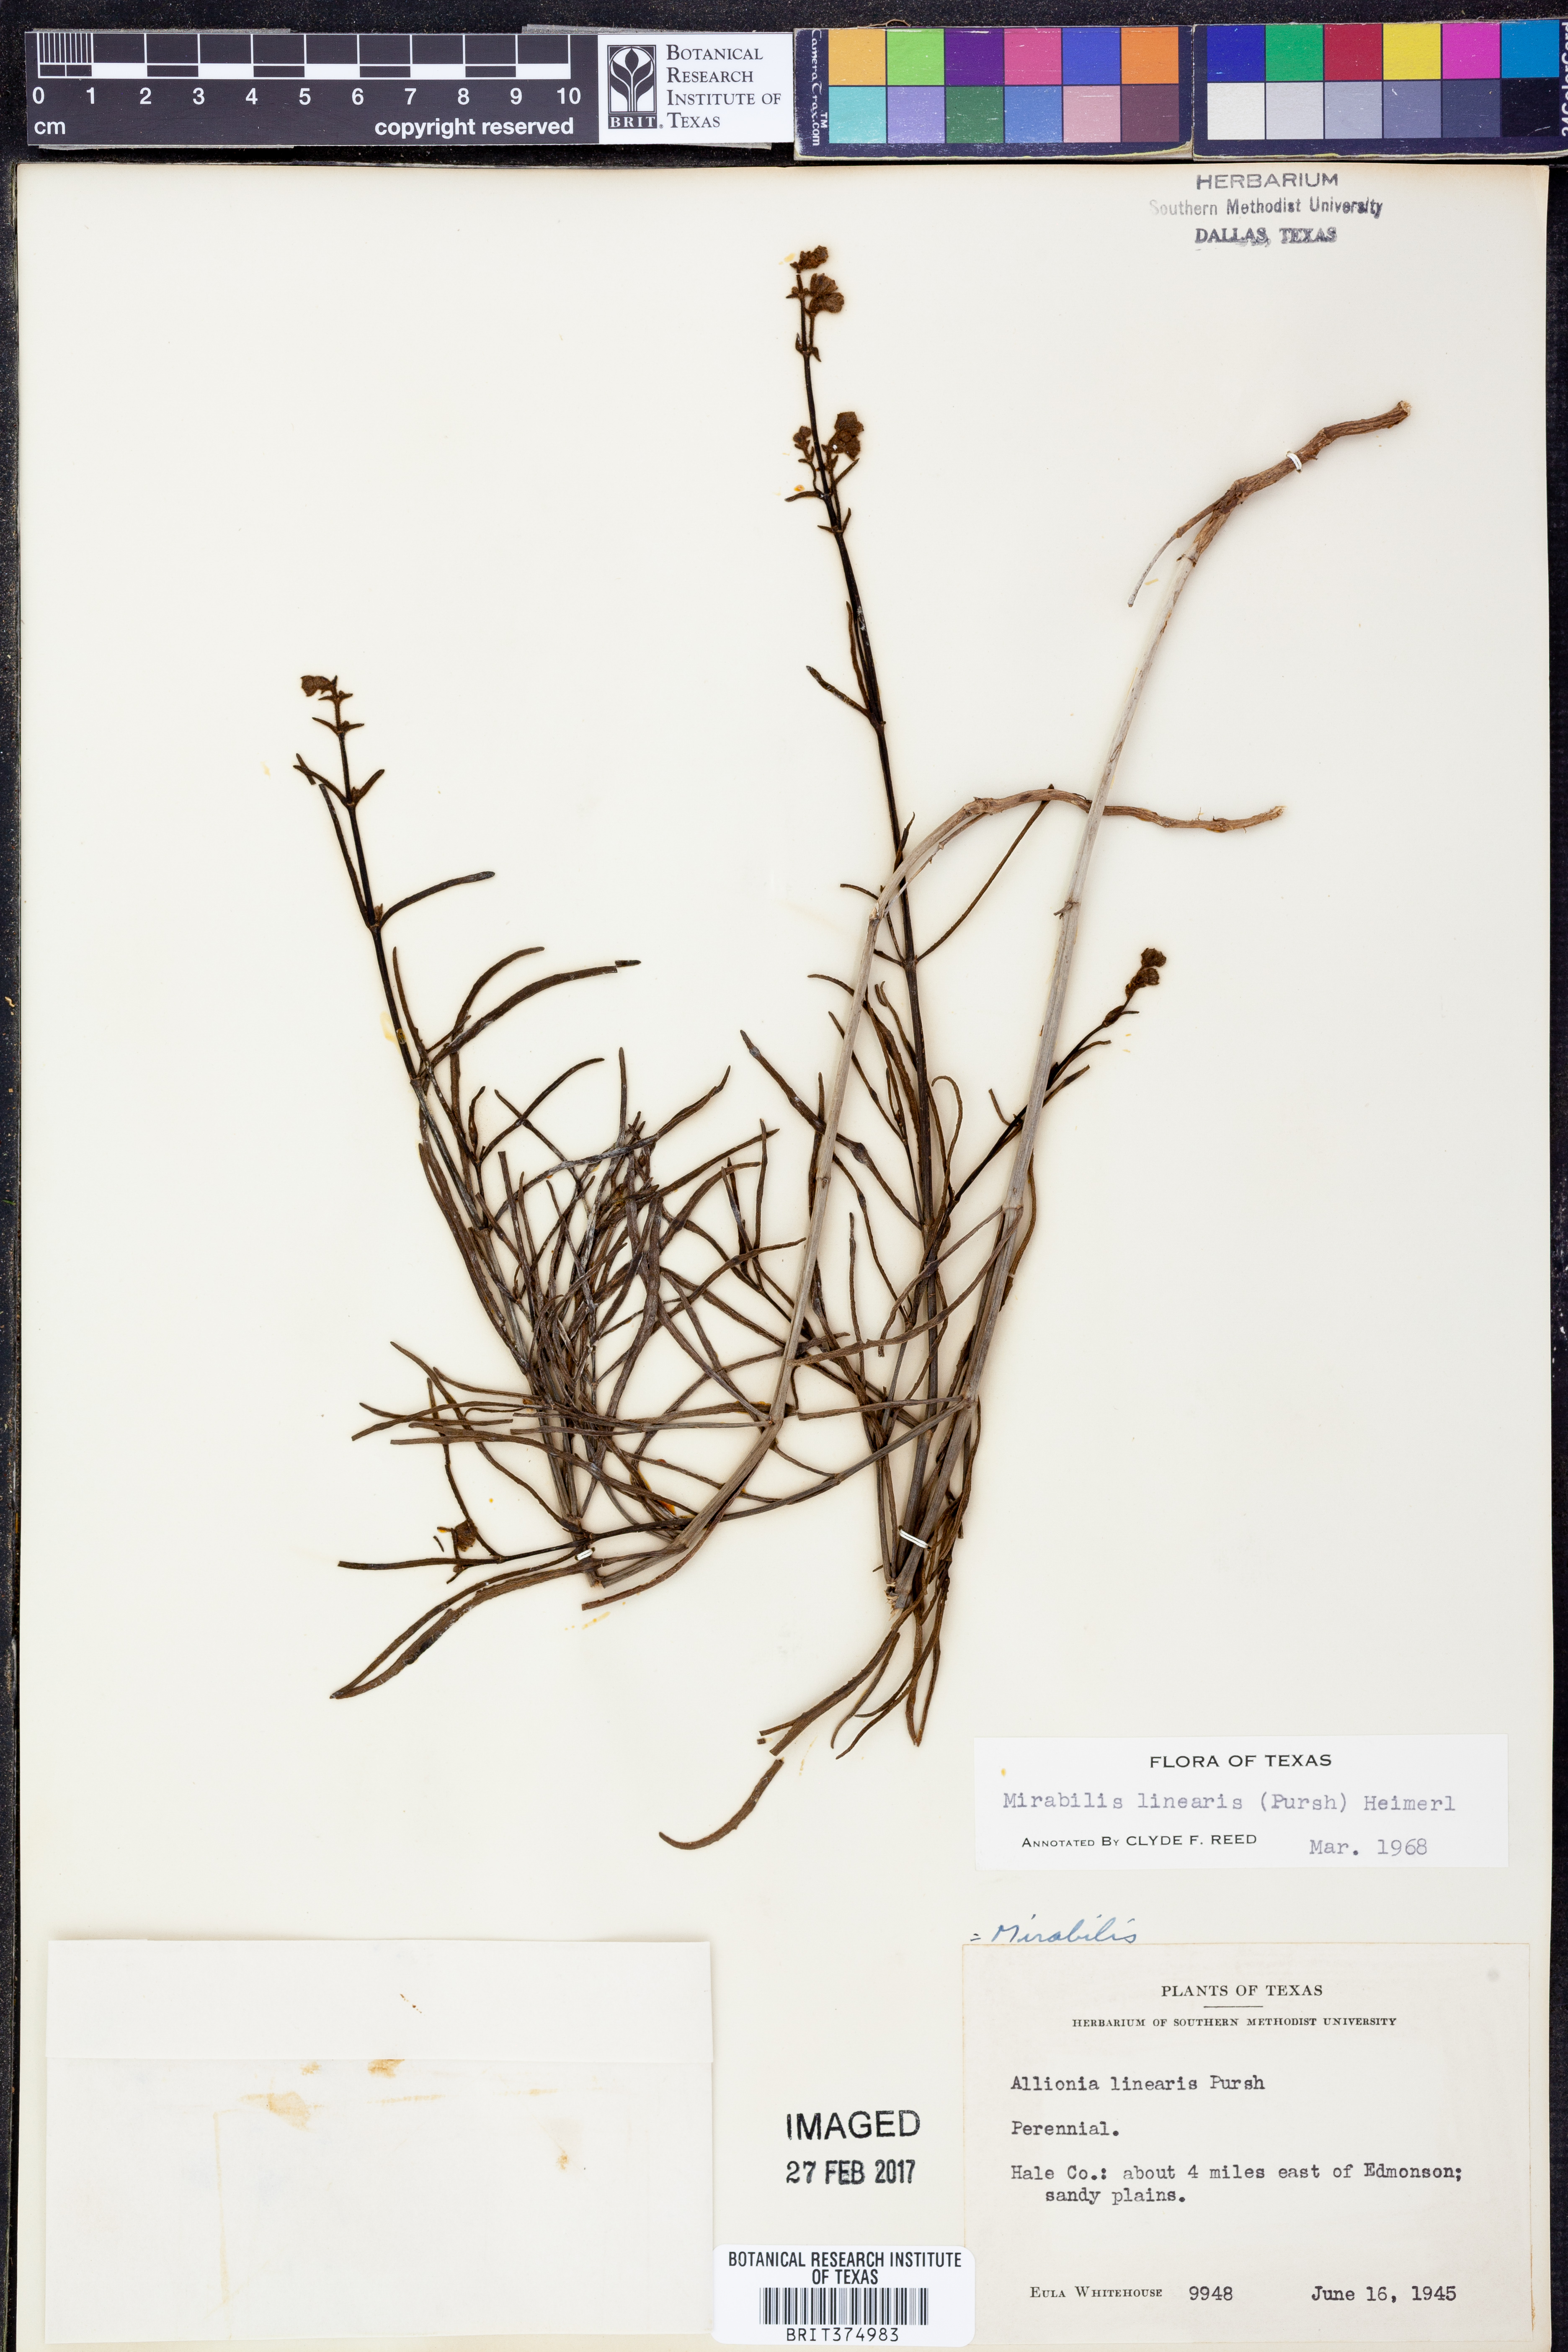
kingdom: Plantae
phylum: Tracheophyta
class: Magnoliopsida
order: Caryophyllales
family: Nyctaginaceae
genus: Mirabilis
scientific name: Mirabilis linearis
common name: Linear-leaved four-o'clock
